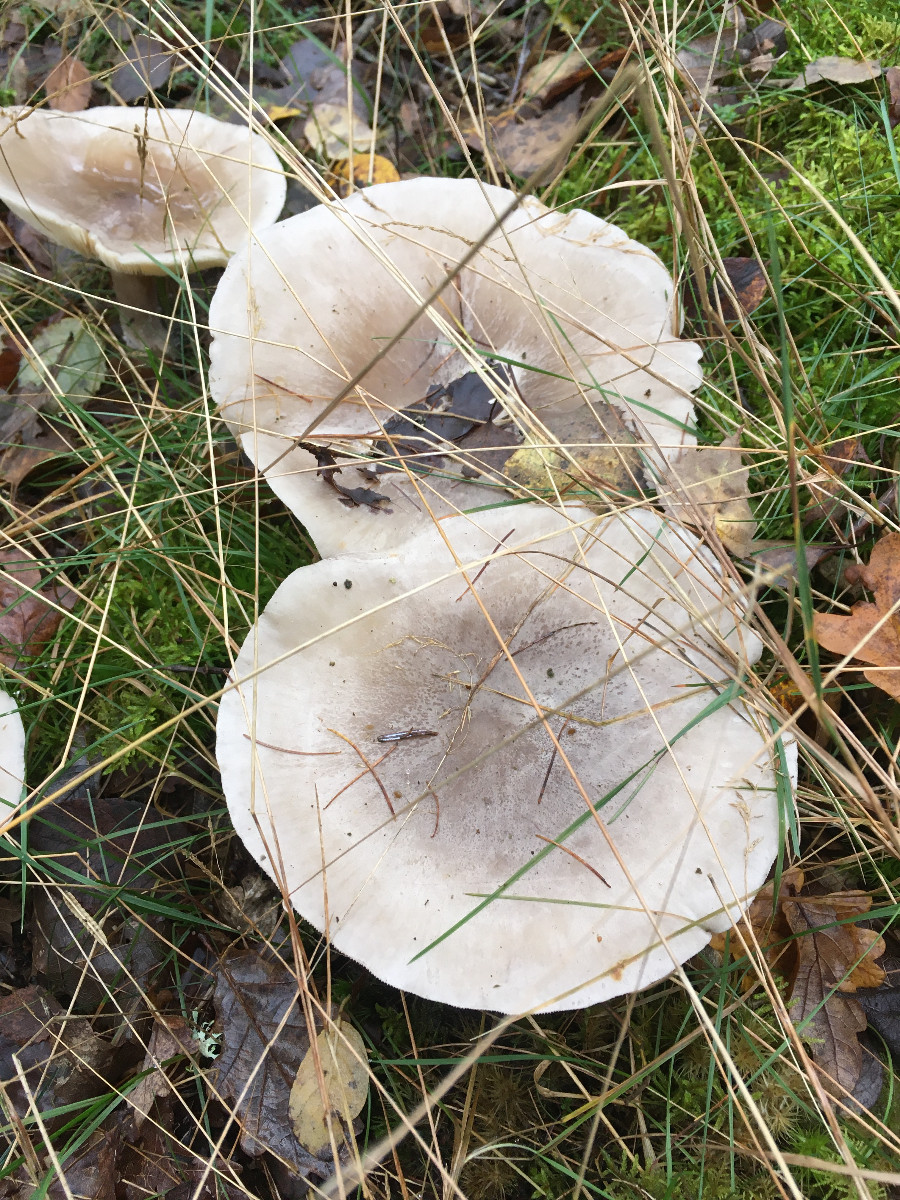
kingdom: Fungi
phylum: Basidiomycota
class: Agaricomycetes
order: Agaricales
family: Tricholomataceae
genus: Clitocybe
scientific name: Clitocybe nebularis
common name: tåge-tragthat
